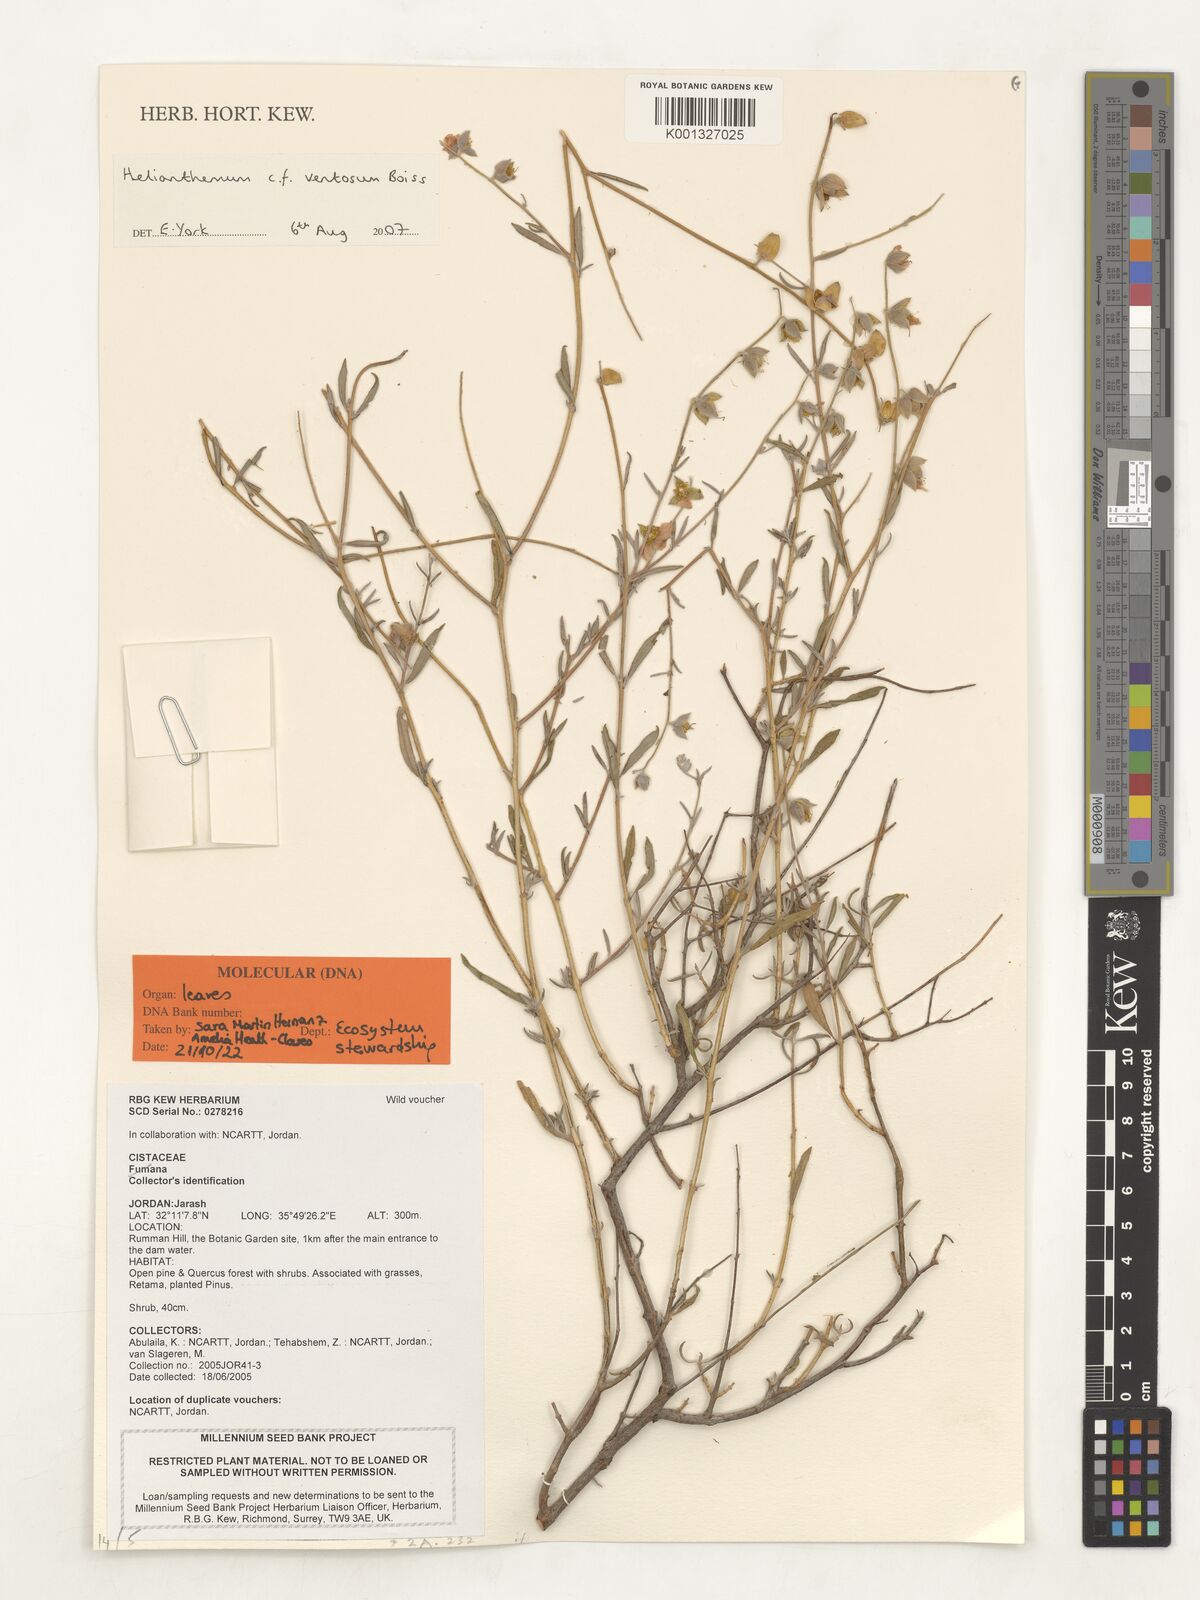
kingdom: Plantae
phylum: Tracheophyta
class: Magnoliopsida
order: Malvales
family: Cistaceae
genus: Helianthemum
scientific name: Helianthemum ventosum
